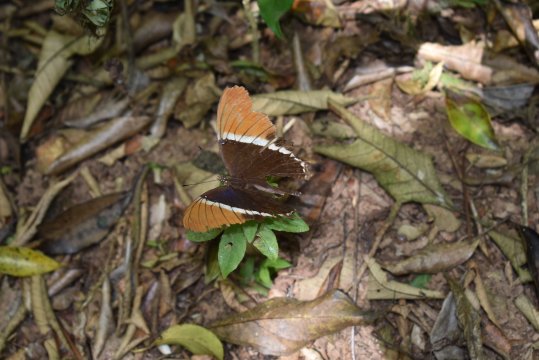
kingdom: Animalia
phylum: Arthropoda
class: Insecta
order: Lepidoptera
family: Nymphalidae
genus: Siproeta
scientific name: Siproeta epaphus
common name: Rusty-tipped Page
